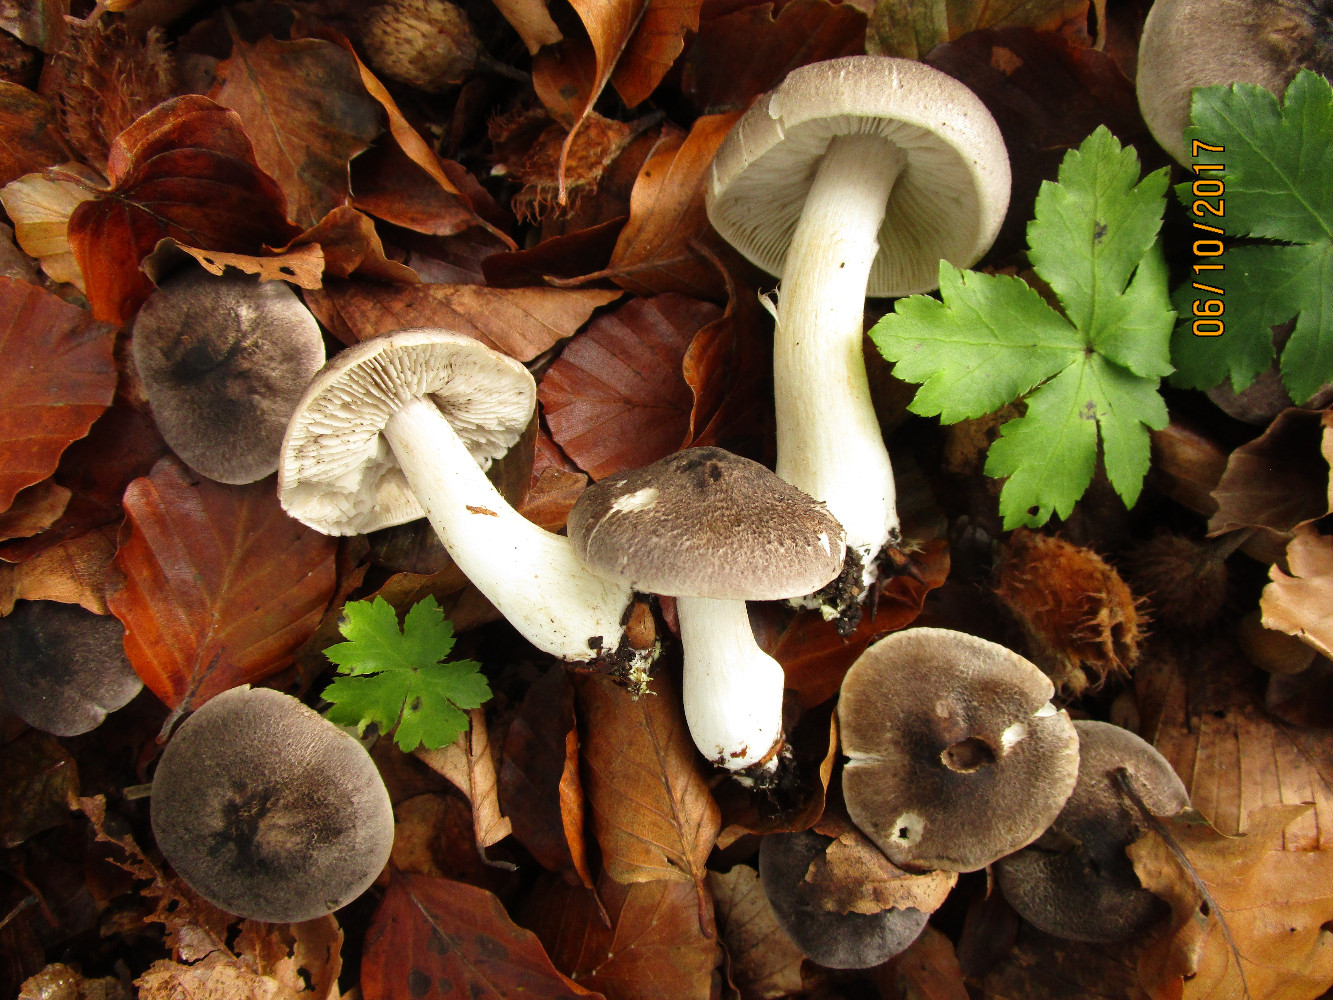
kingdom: Fungi
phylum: Basidiomycota
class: Agaricomycetes
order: Agaricales
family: Tricholomataceae
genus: Tricholoma
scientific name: Tricholoma scalpturatum
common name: gulplettet ridderhat
